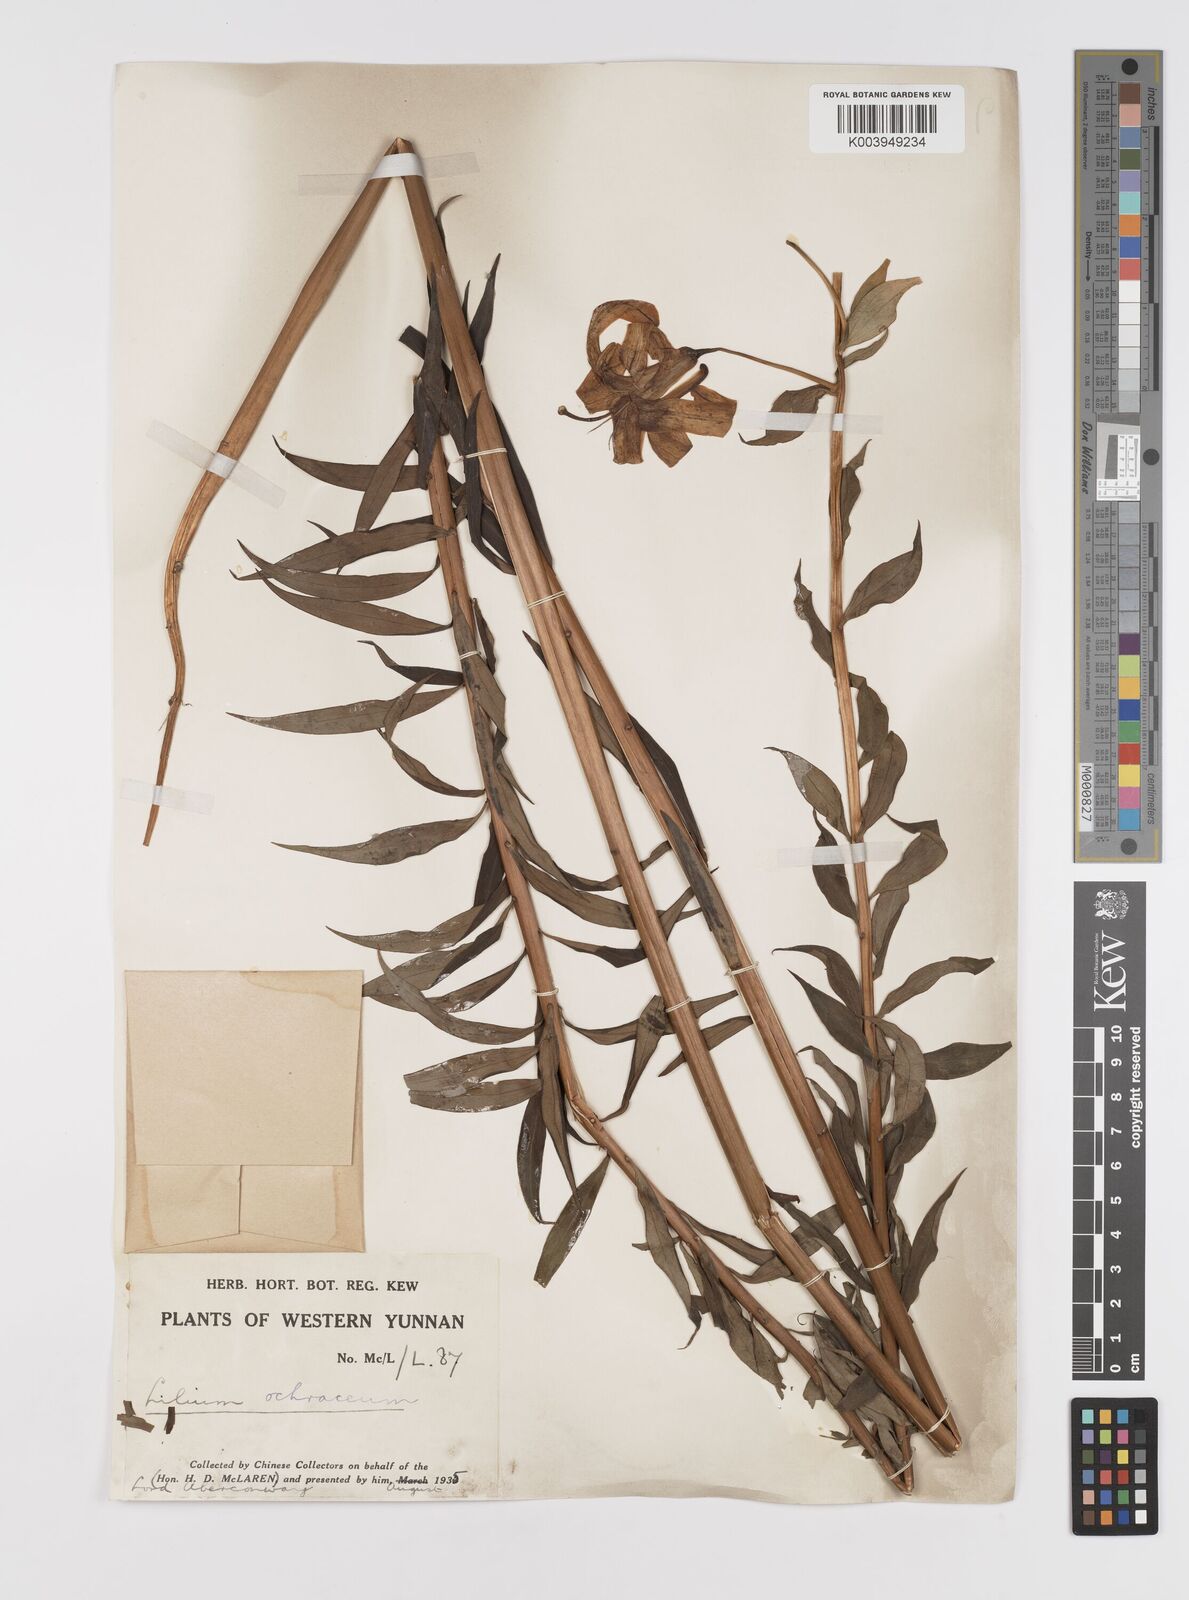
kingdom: Plantae
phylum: Tracheophyta
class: Liliopsida
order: Liliales
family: Liliaceae
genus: Lilium
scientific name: Lilium primulinum
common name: Ochre lily
